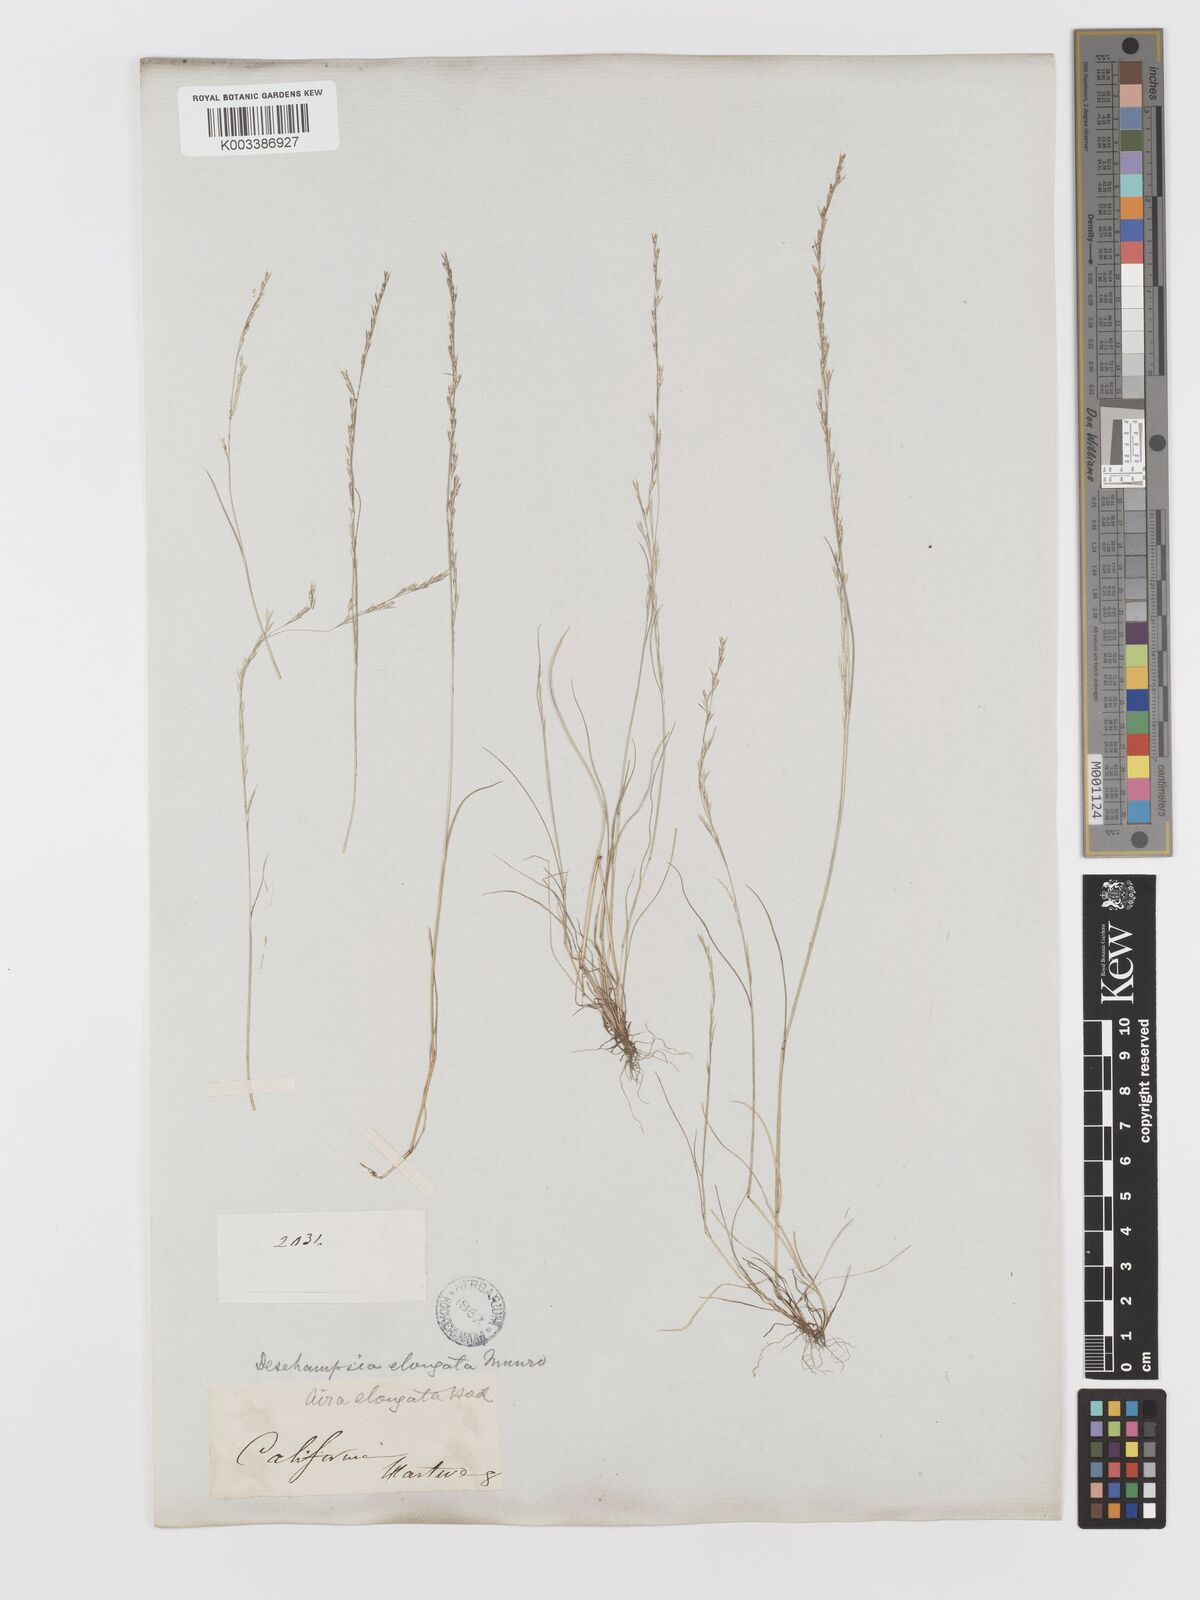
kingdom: Plantae
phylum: Tracheophyta
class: Liliopsida
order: Poales
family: Poaceae
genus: Deschampsia
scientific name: Deschampsia elongata
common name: Slender hairgrass
